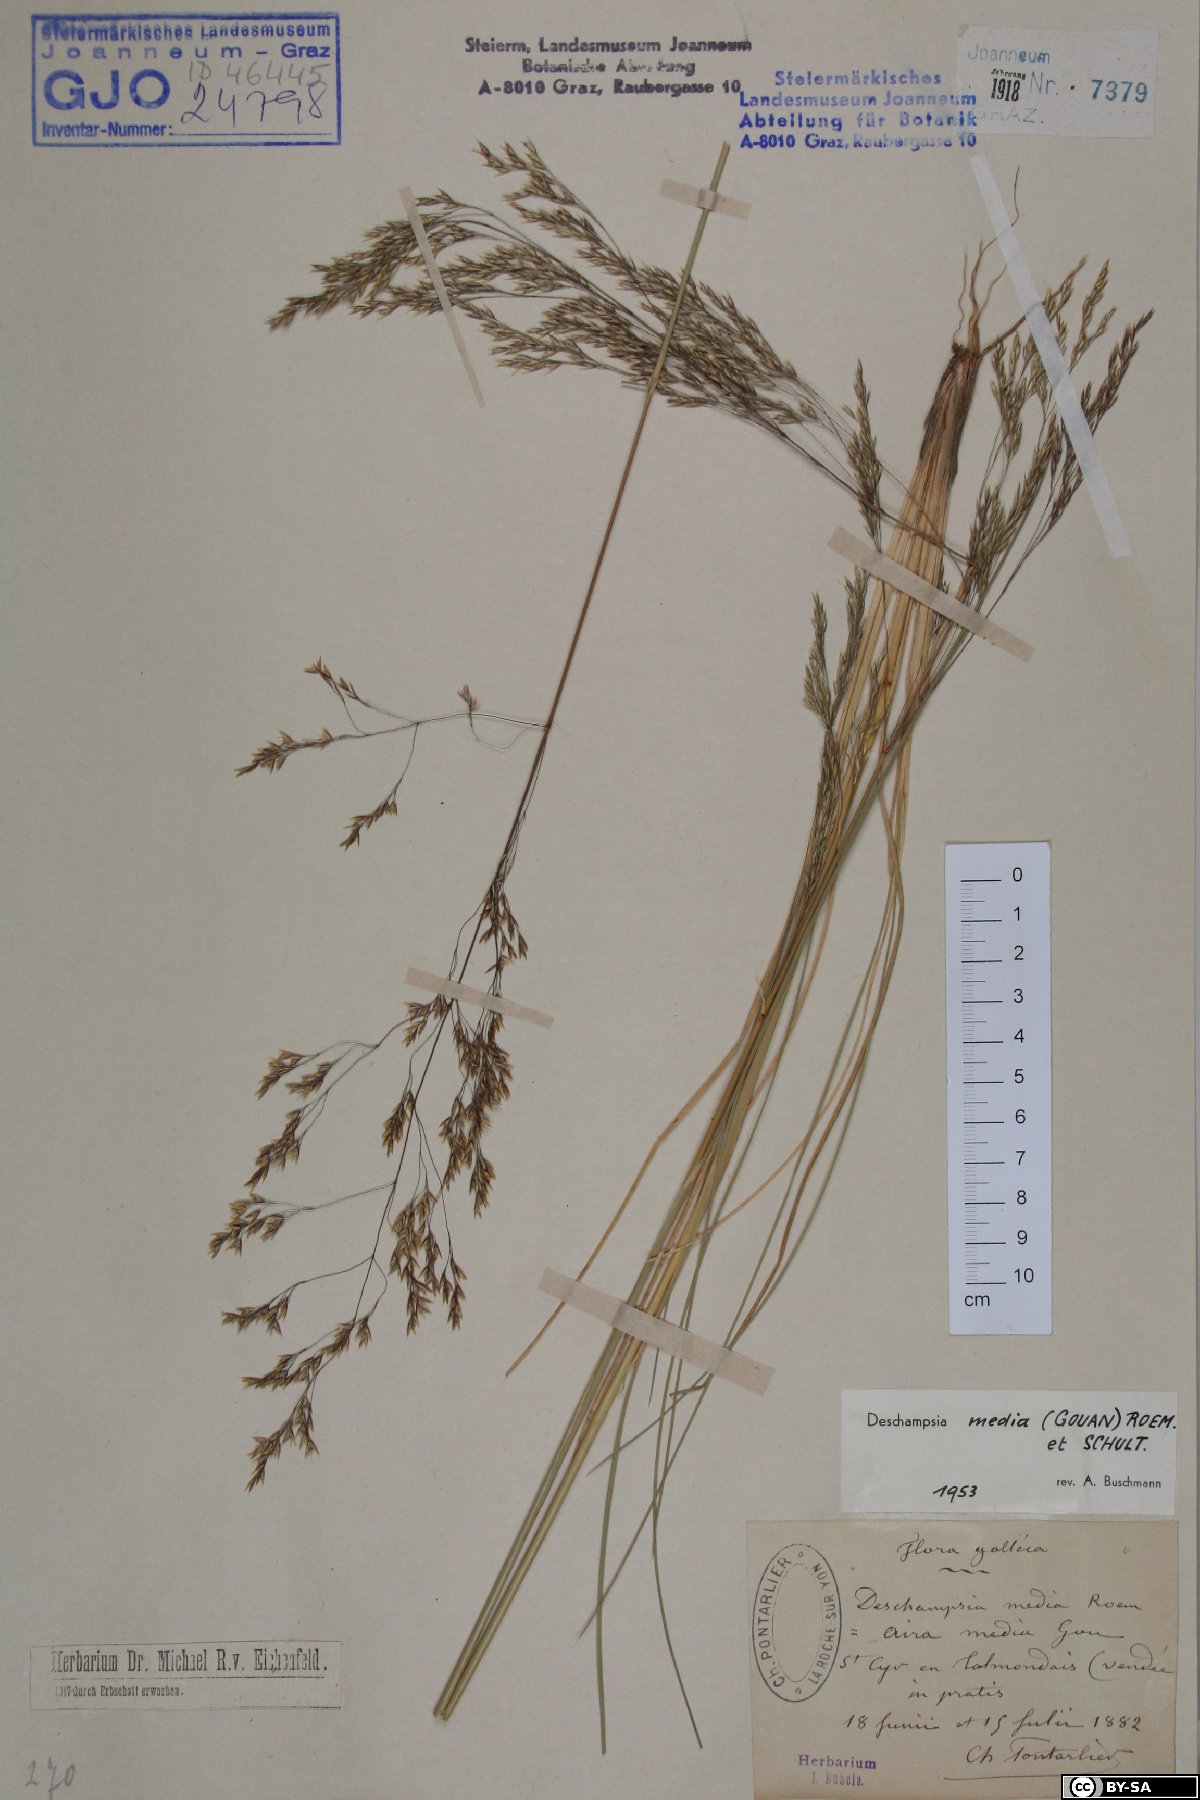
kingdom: Plantae
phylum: Tracheophyta
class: Liliopsida
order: Poales
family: Poaceae
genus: Deschampsia
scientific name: Deschampsia media
